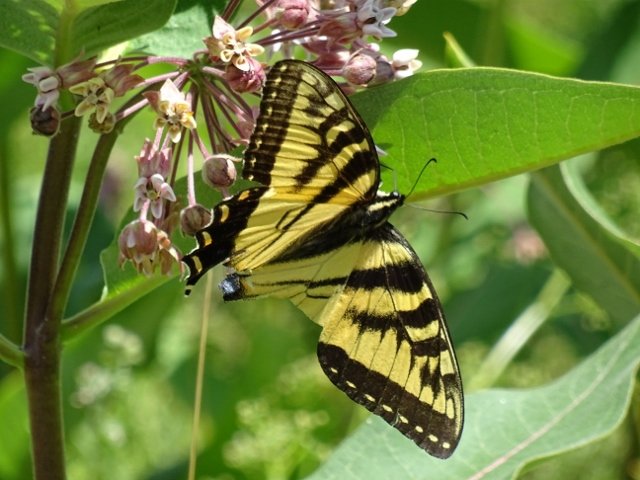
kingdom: Animalia
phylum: Arthropoda
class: Insecta
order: Lepidoptera
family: Papilionidae
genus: Pterourus
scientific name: Pterourus glaucus
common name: Eastern Tiger Swallowtail
